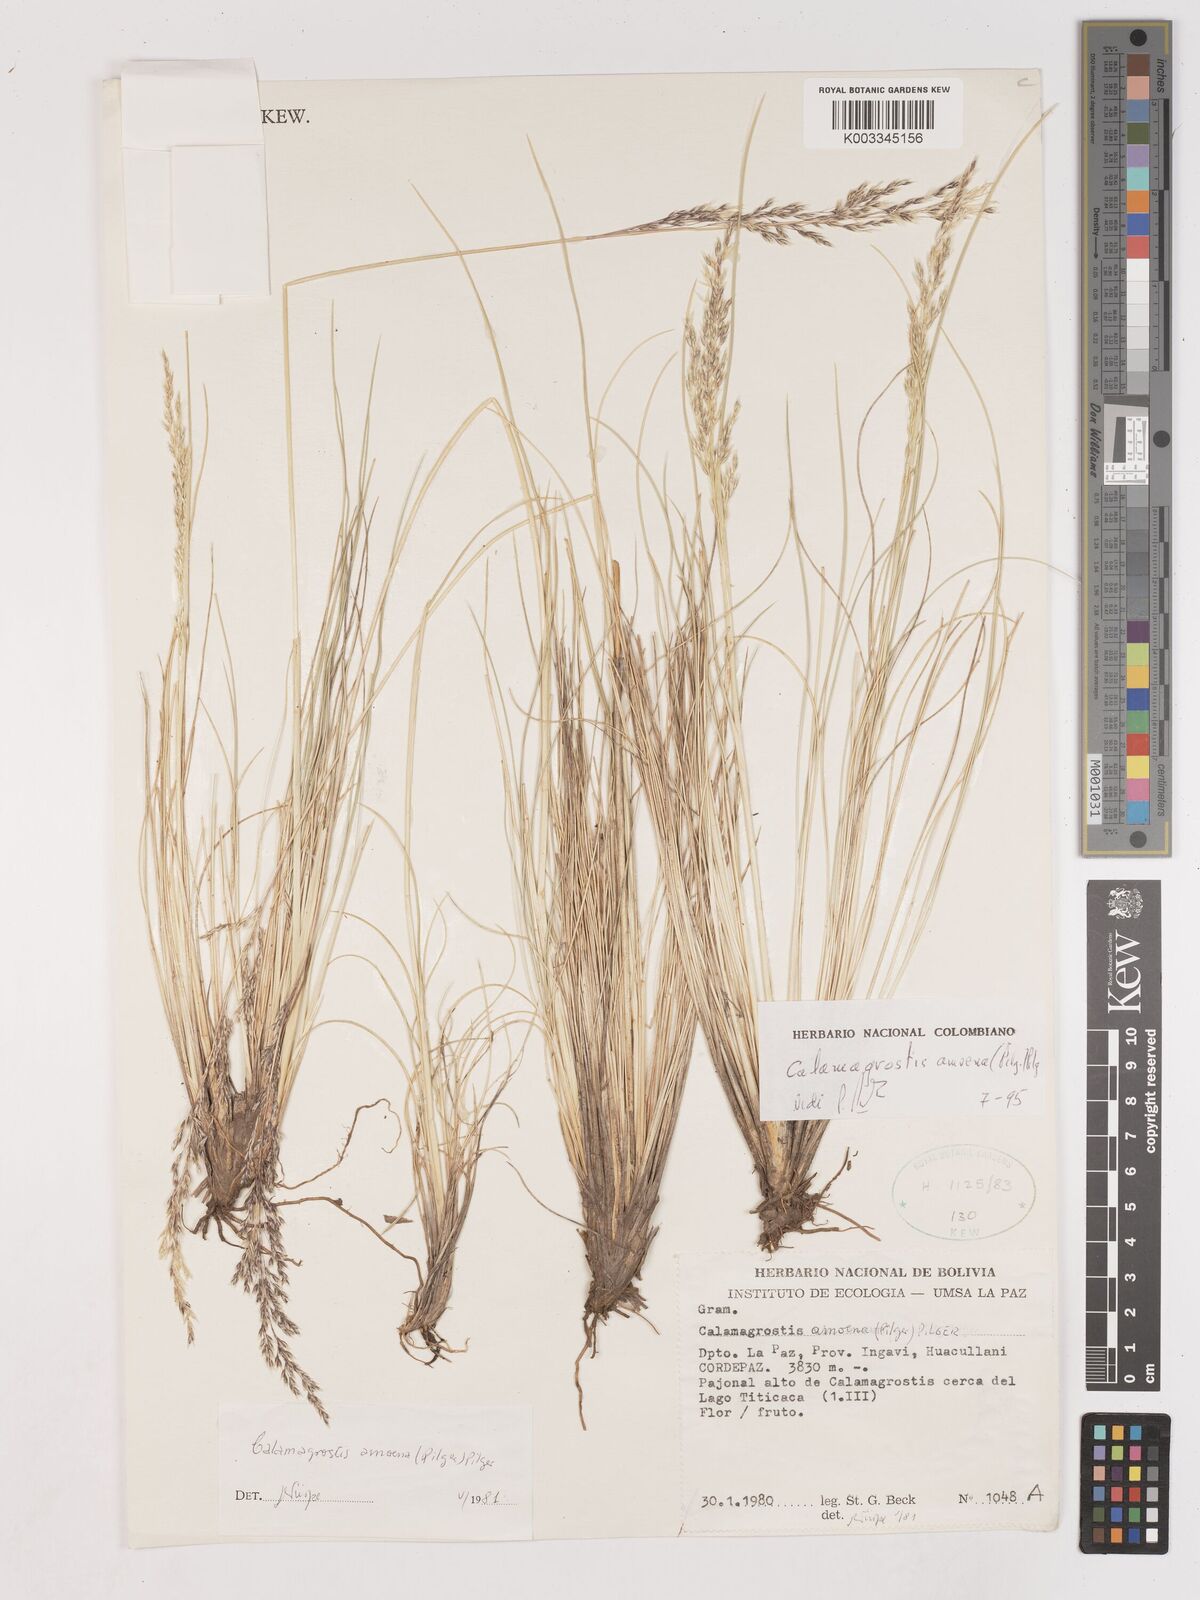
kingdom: Plantae
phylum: Tracheophyta
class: Liliopsida
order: Poales
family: Poaceae
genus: Calamagrostis
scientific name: Calamagrostis
